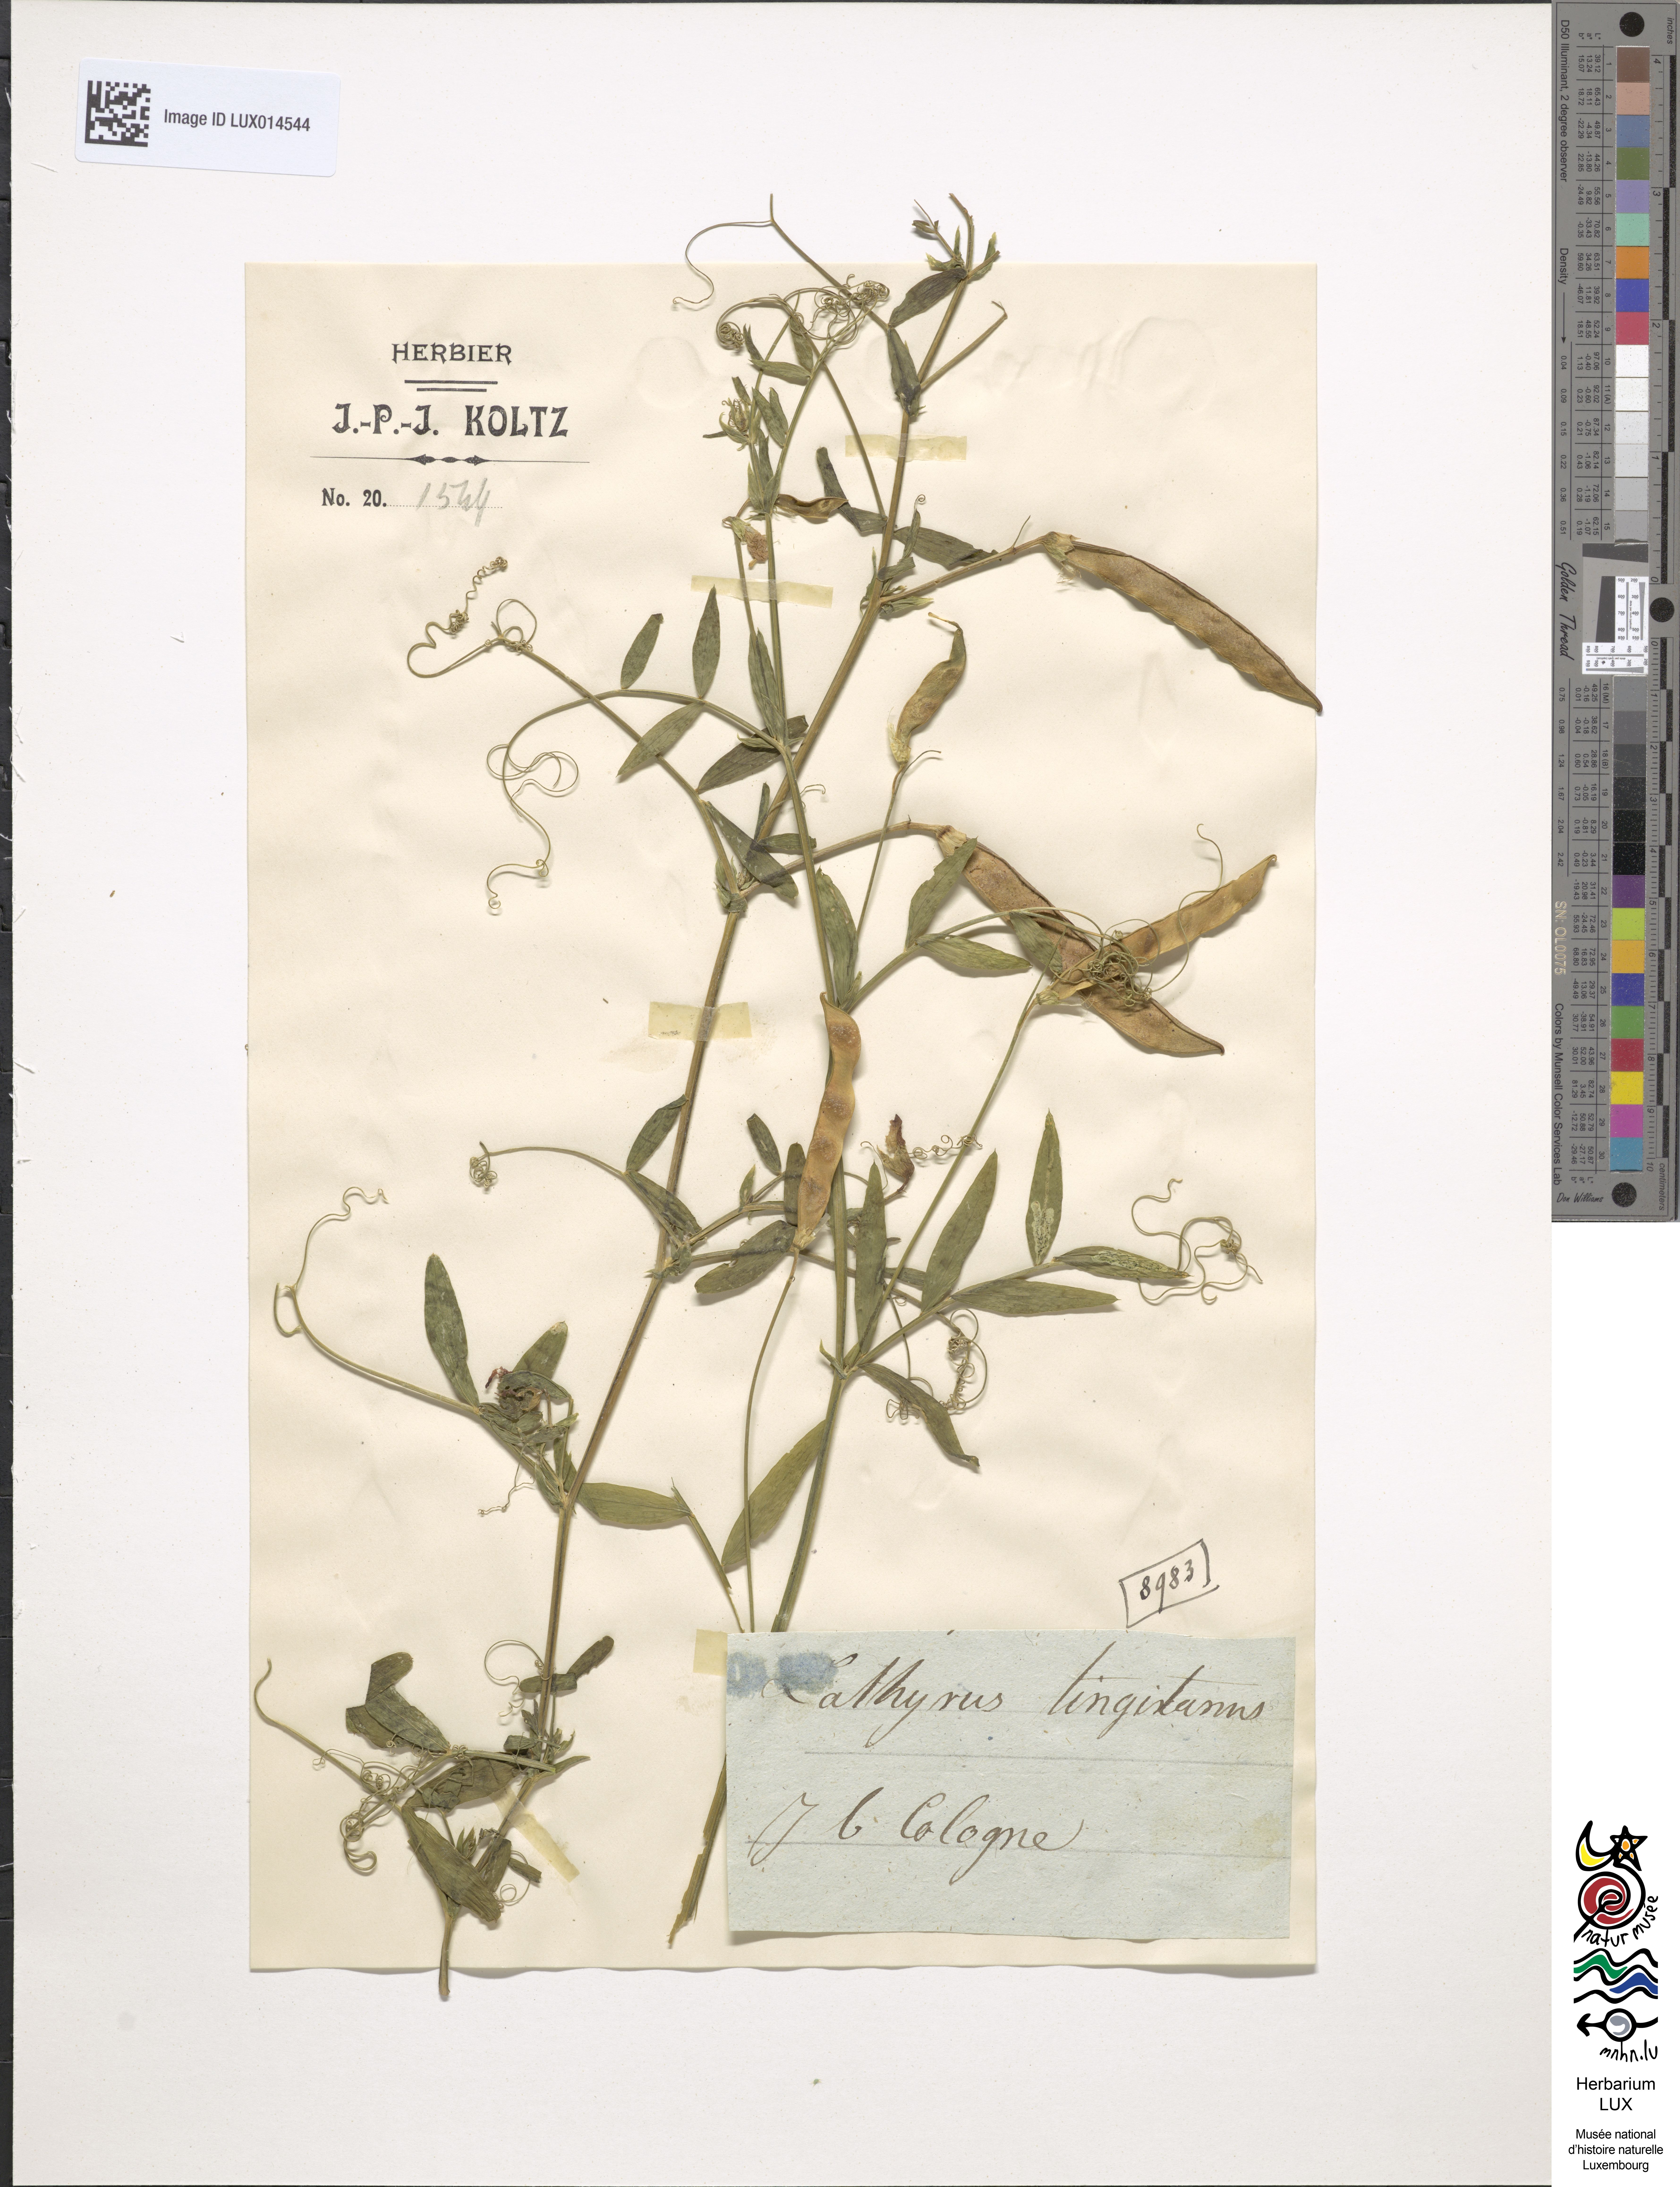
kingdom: Plantae
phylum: Tracheophyta
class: Magnoliopsida
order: Fabales
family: Fabaceae
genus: Lathyrus
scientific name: Lathyrus tingitanus
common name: Tangier pea
